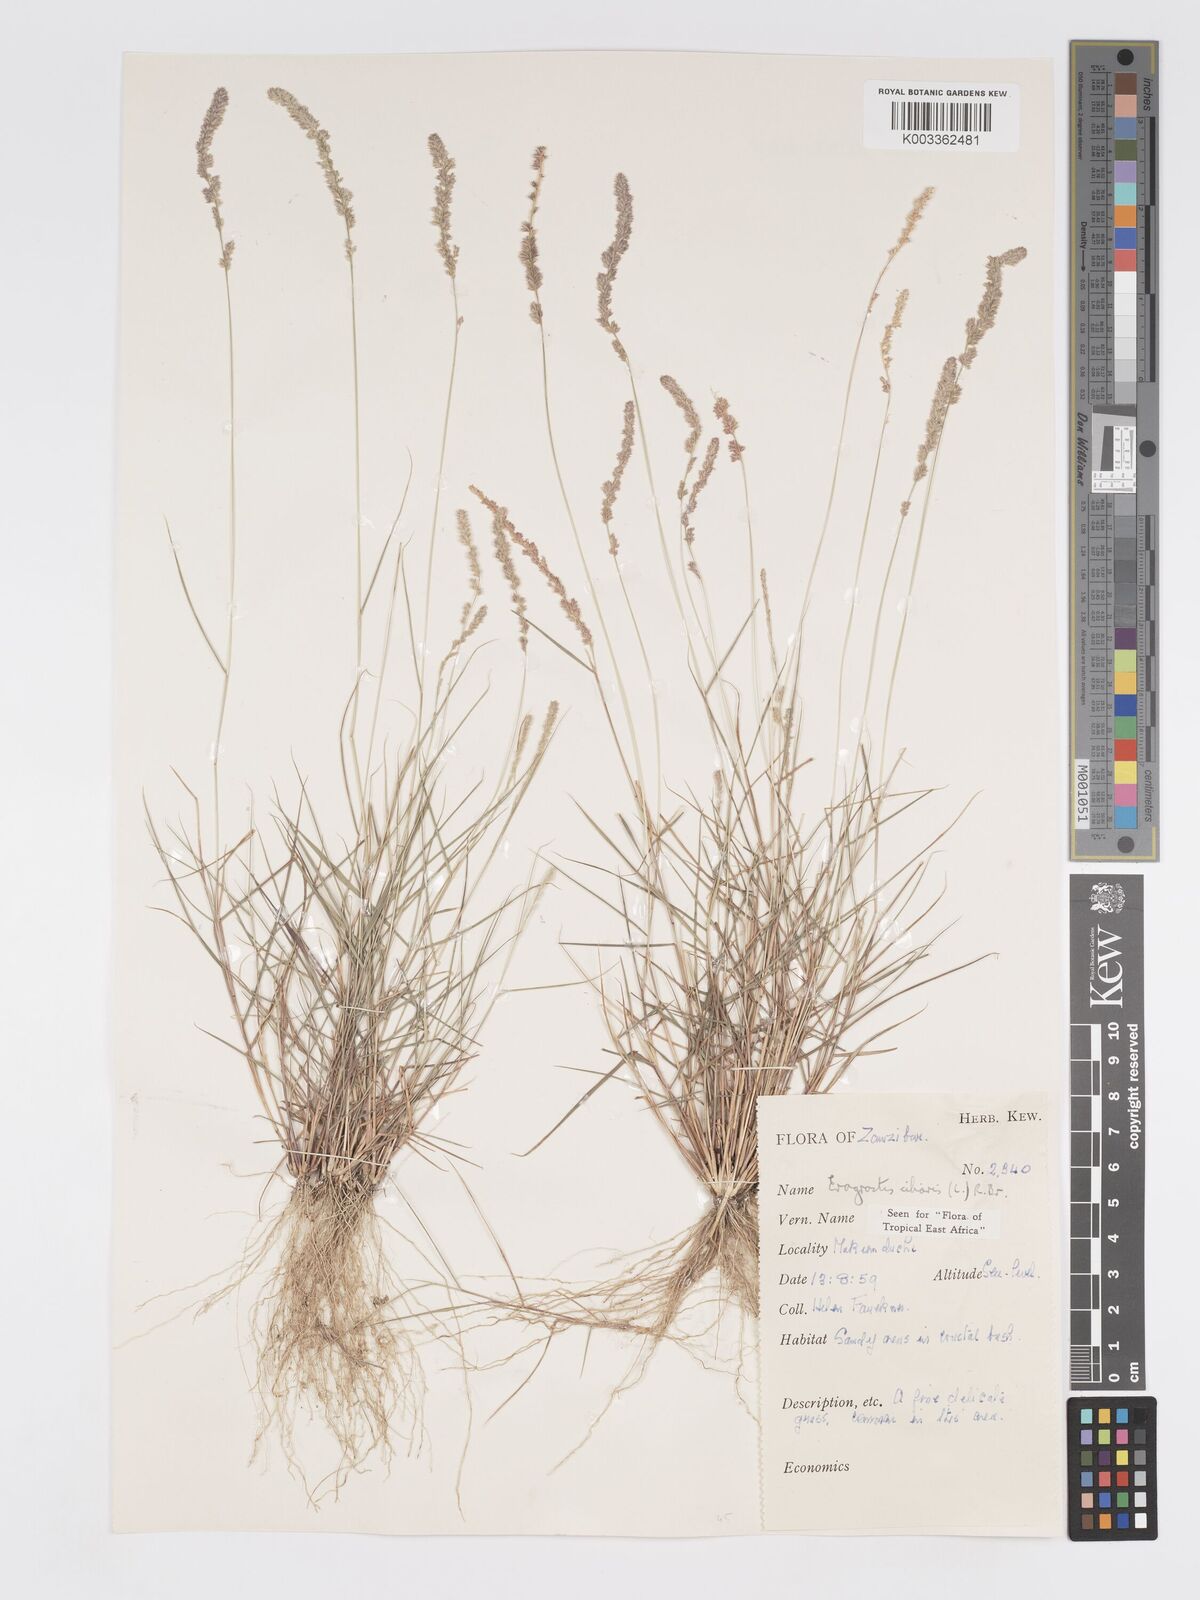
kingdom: Plantae
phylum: Tracheophyta
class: Liliopsida
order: Poales
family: Poaceae
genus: Eragrostis
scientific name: Eragrostis ciliaris
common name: Gophertail lovegrass
